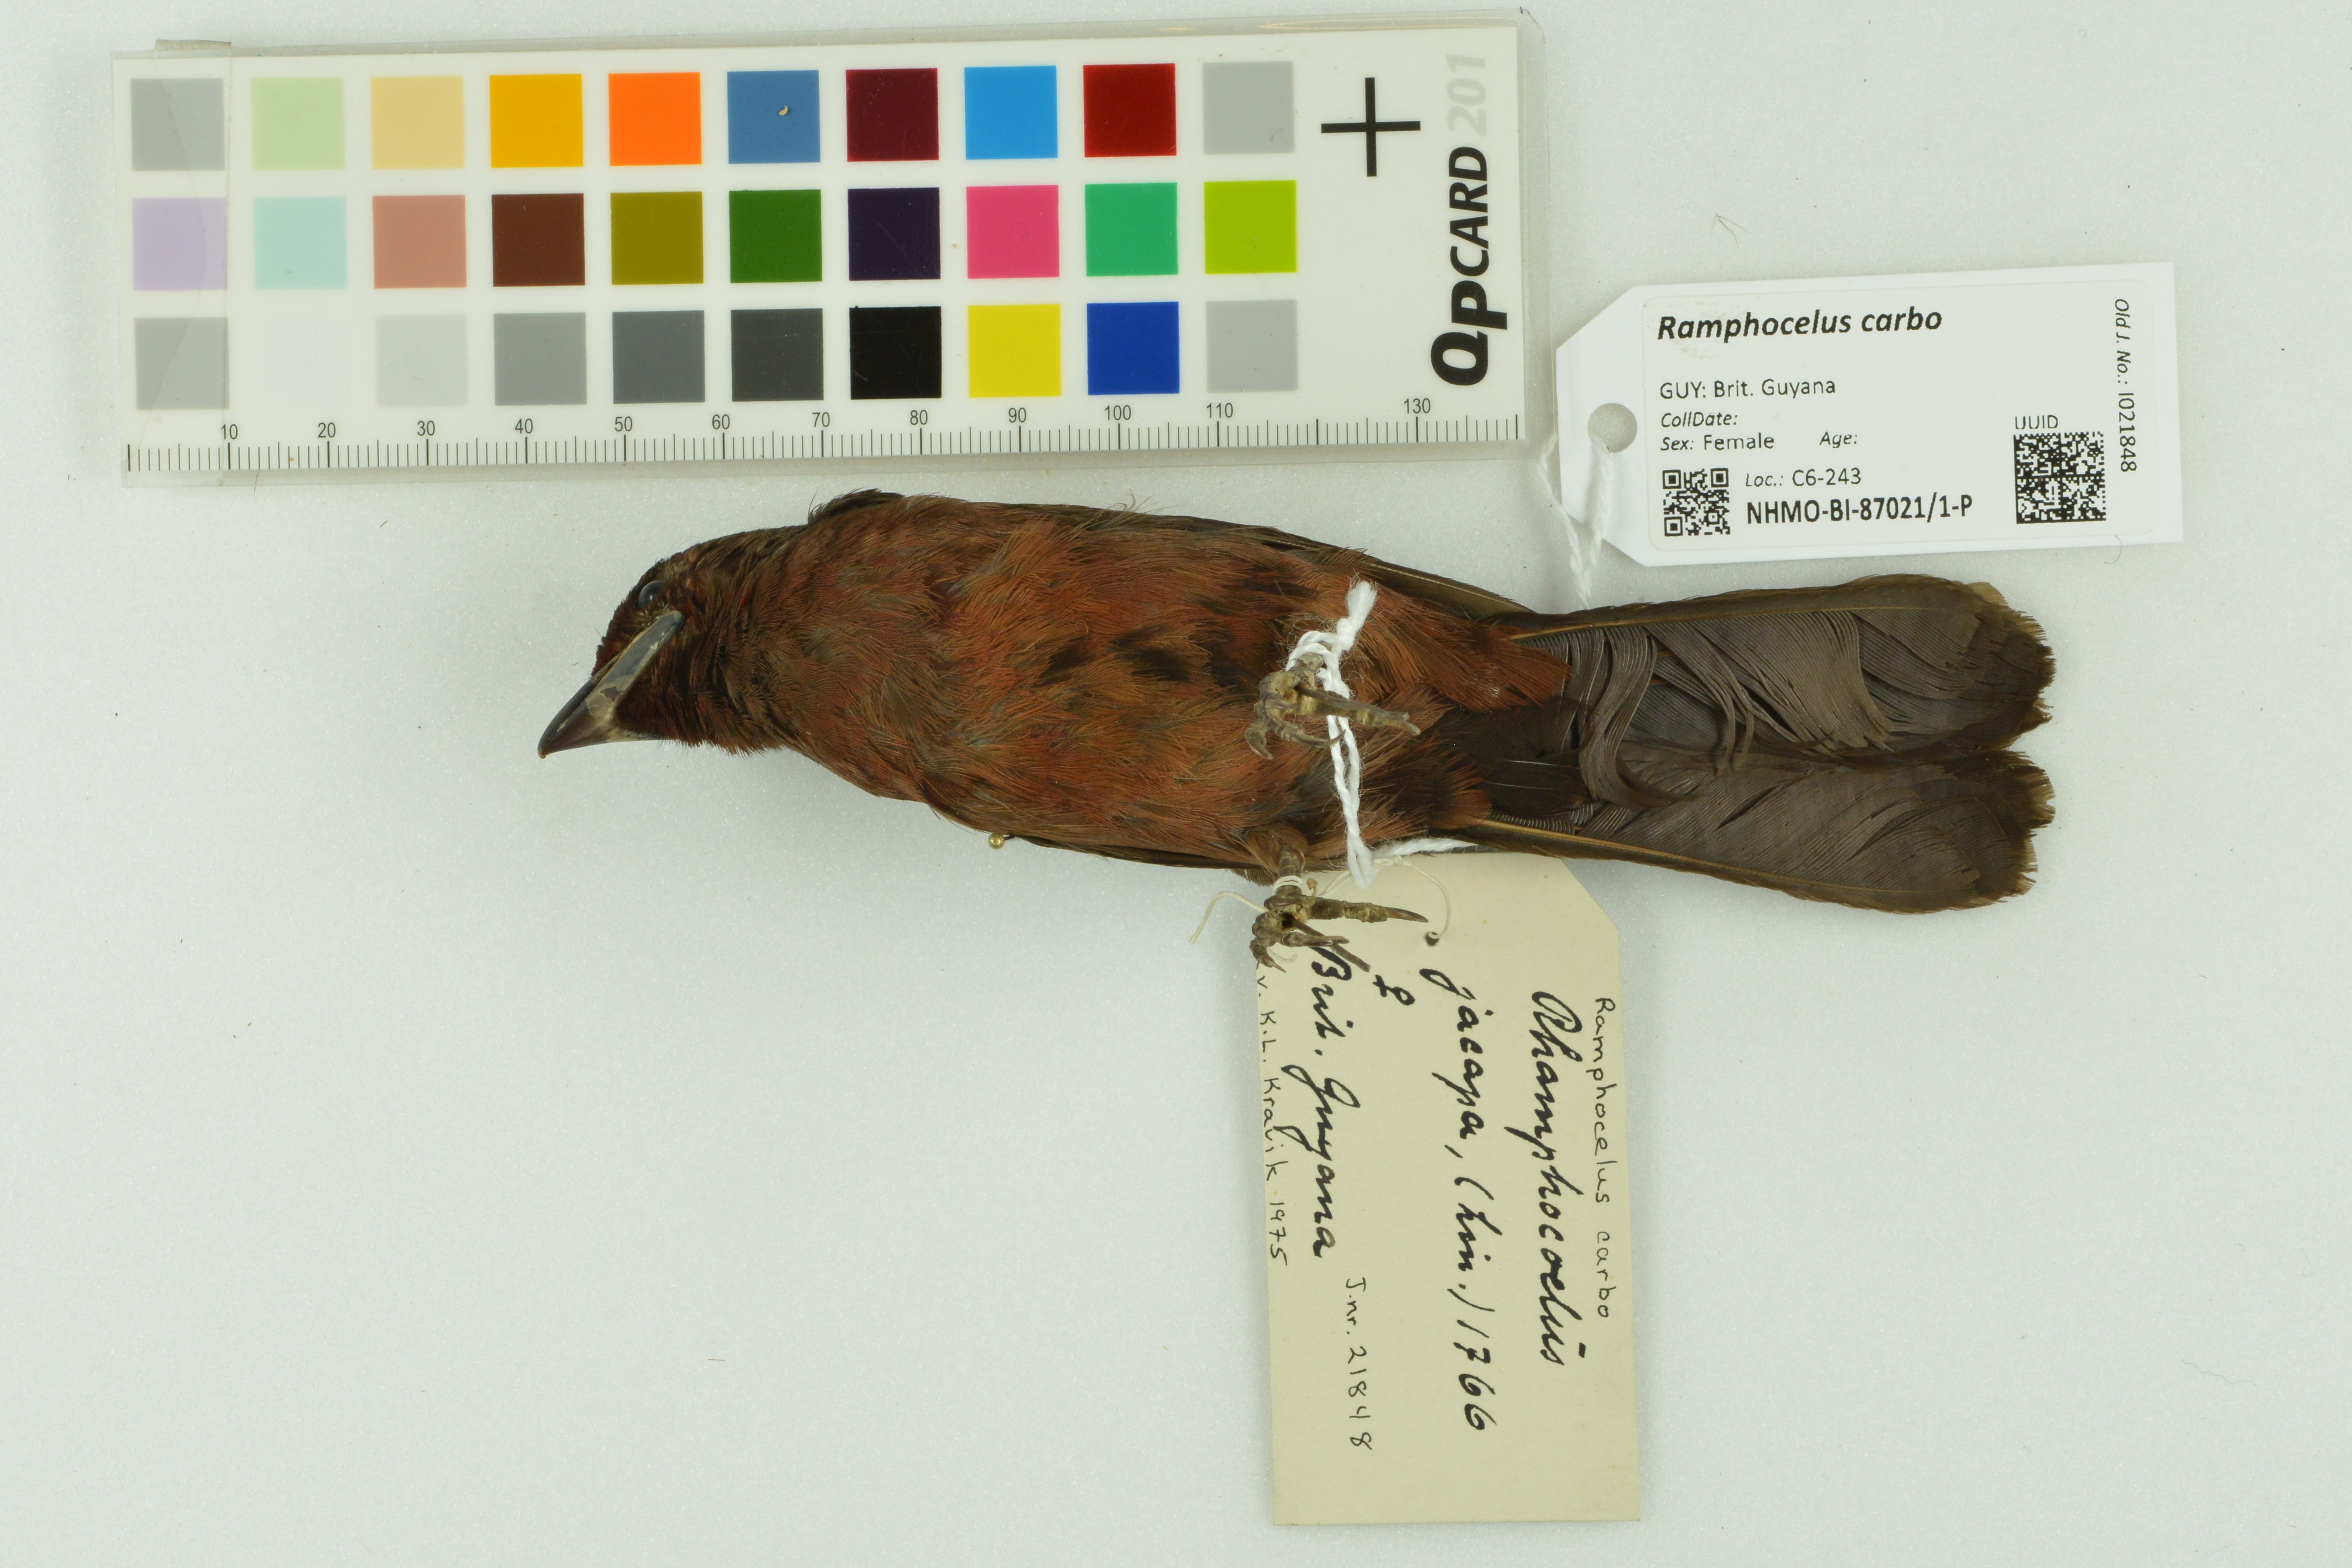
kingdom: Animalia
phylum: Chordata
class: Aves
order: Passeriformes
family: Thraupidae
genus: Ramphocelus
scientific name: Ramphocelus carbo
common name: Silver-beaked tanager
